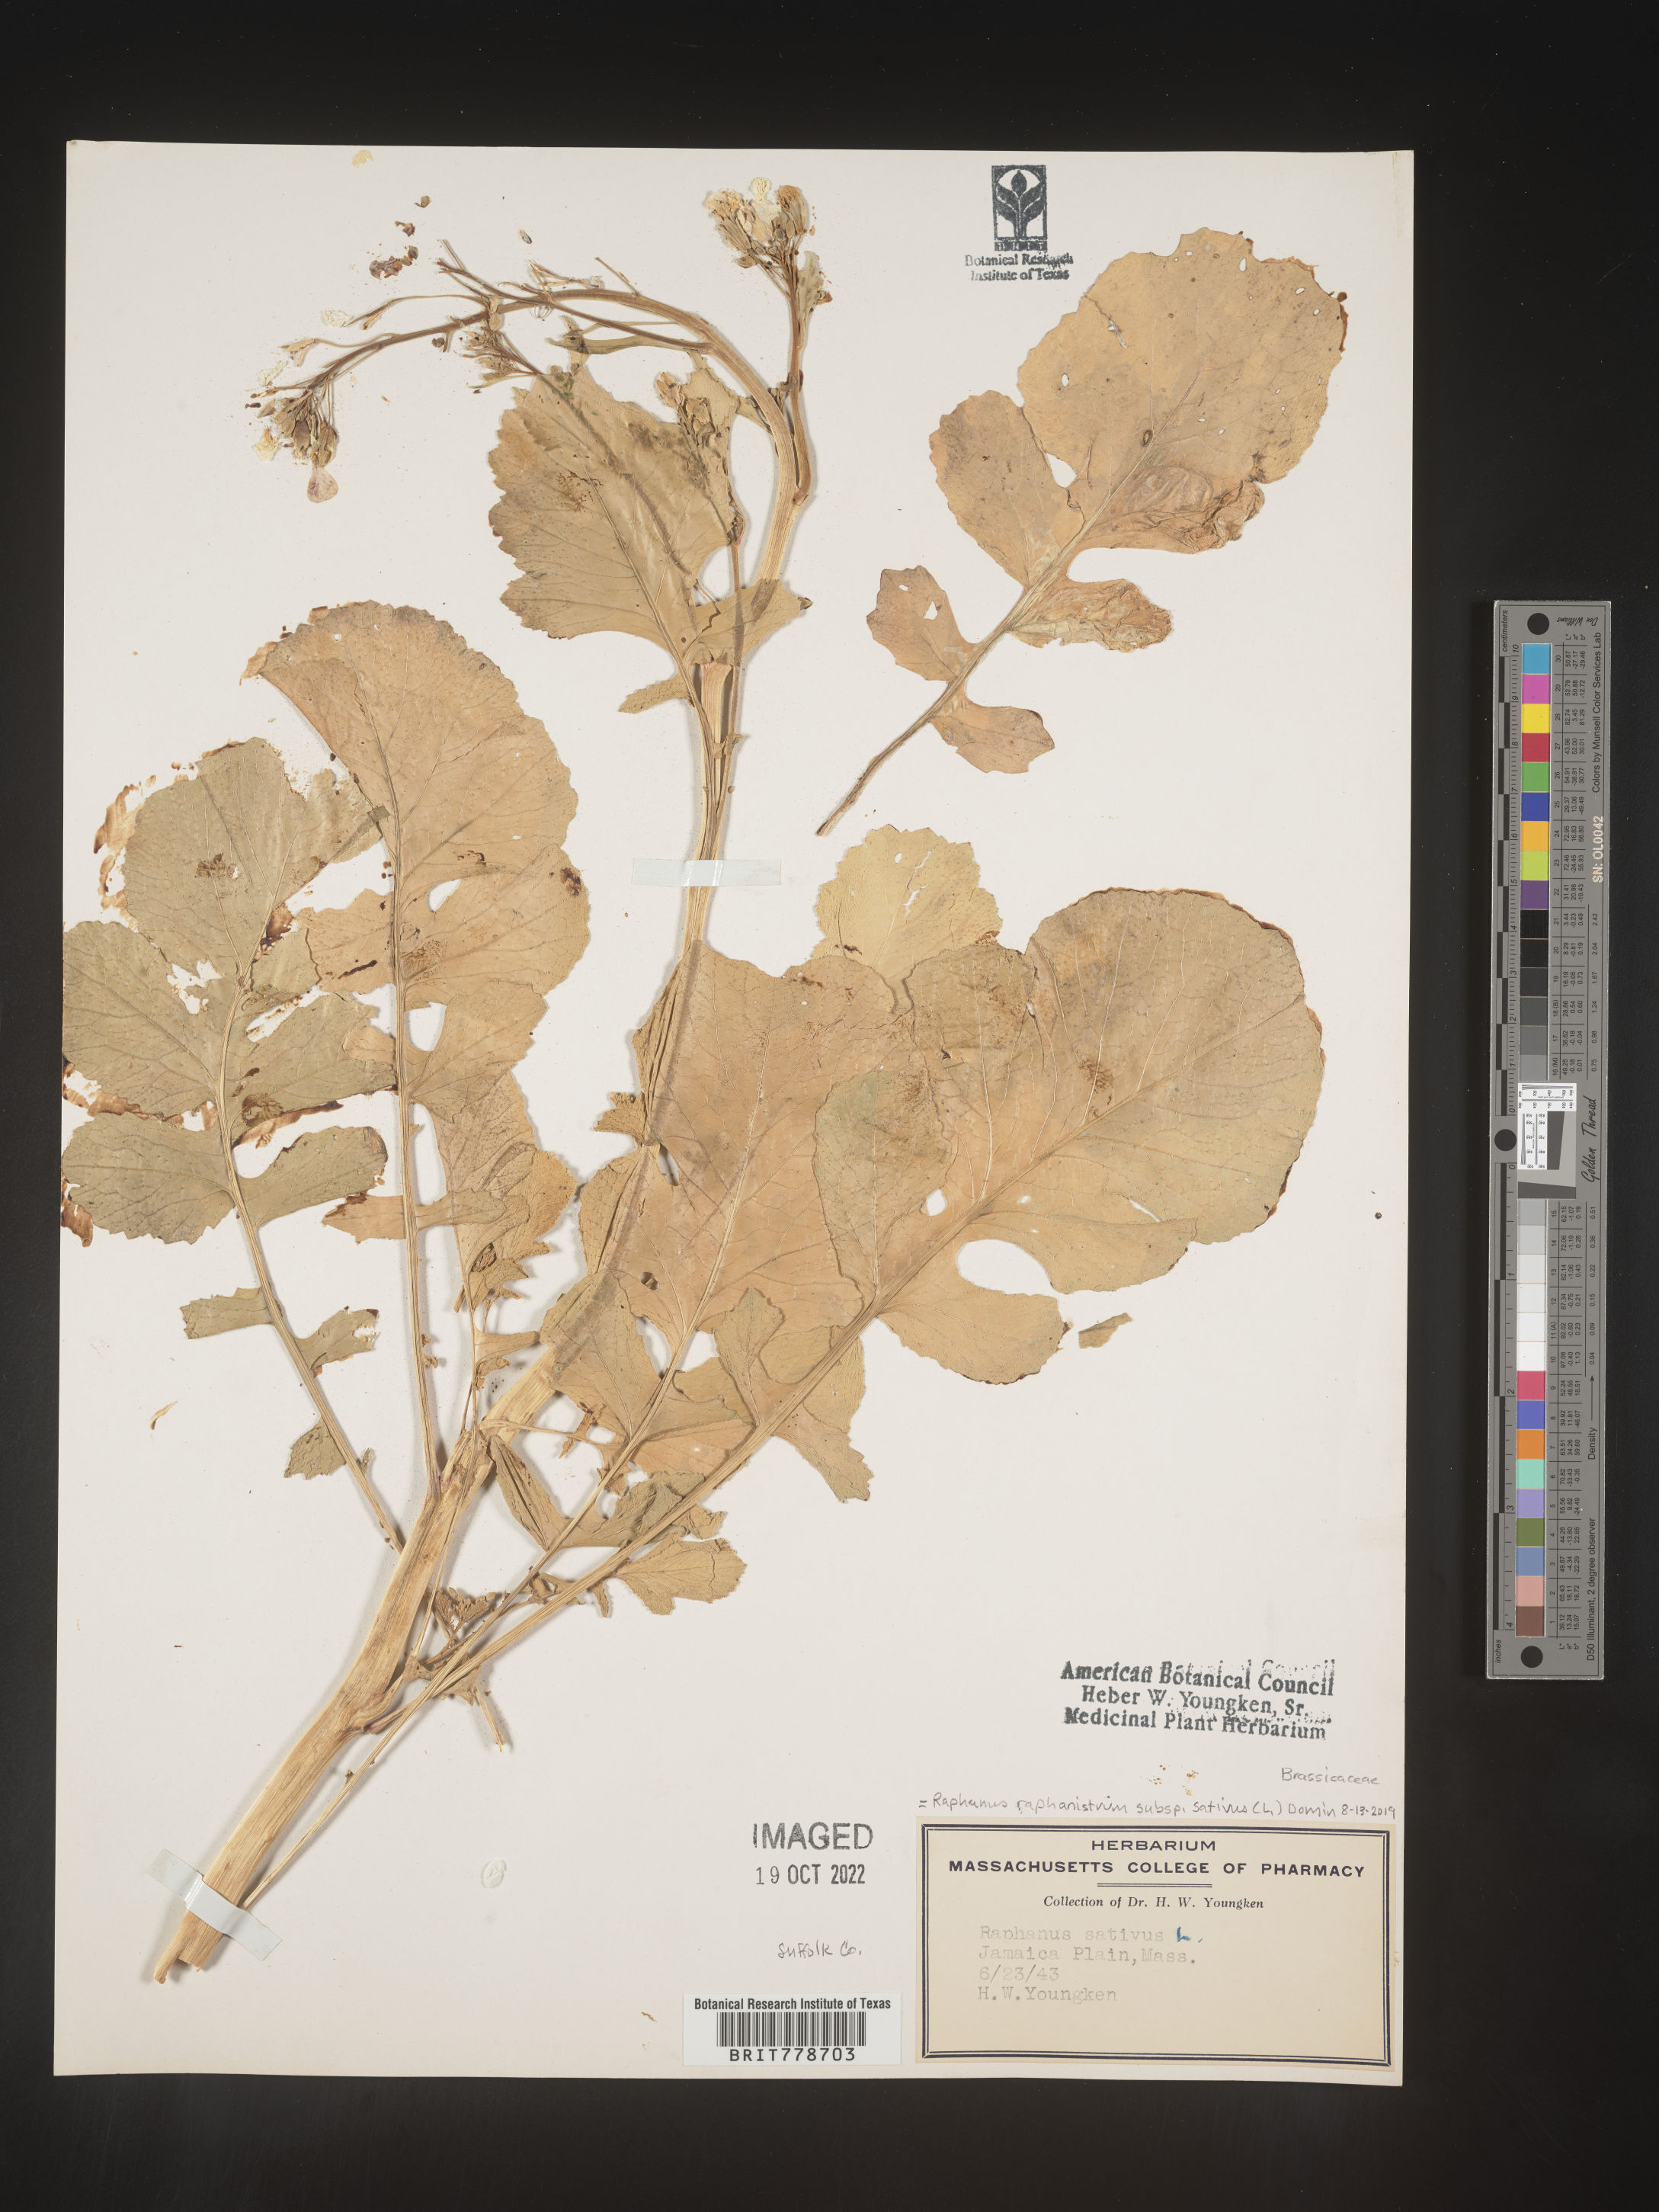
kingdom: Plantae
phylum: Tracheophyta
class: Magnoliopsida
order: Brassicales
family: Brassicaceae
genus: Raphanus
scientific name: Raphanus raphanistrum
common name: Wild radish
